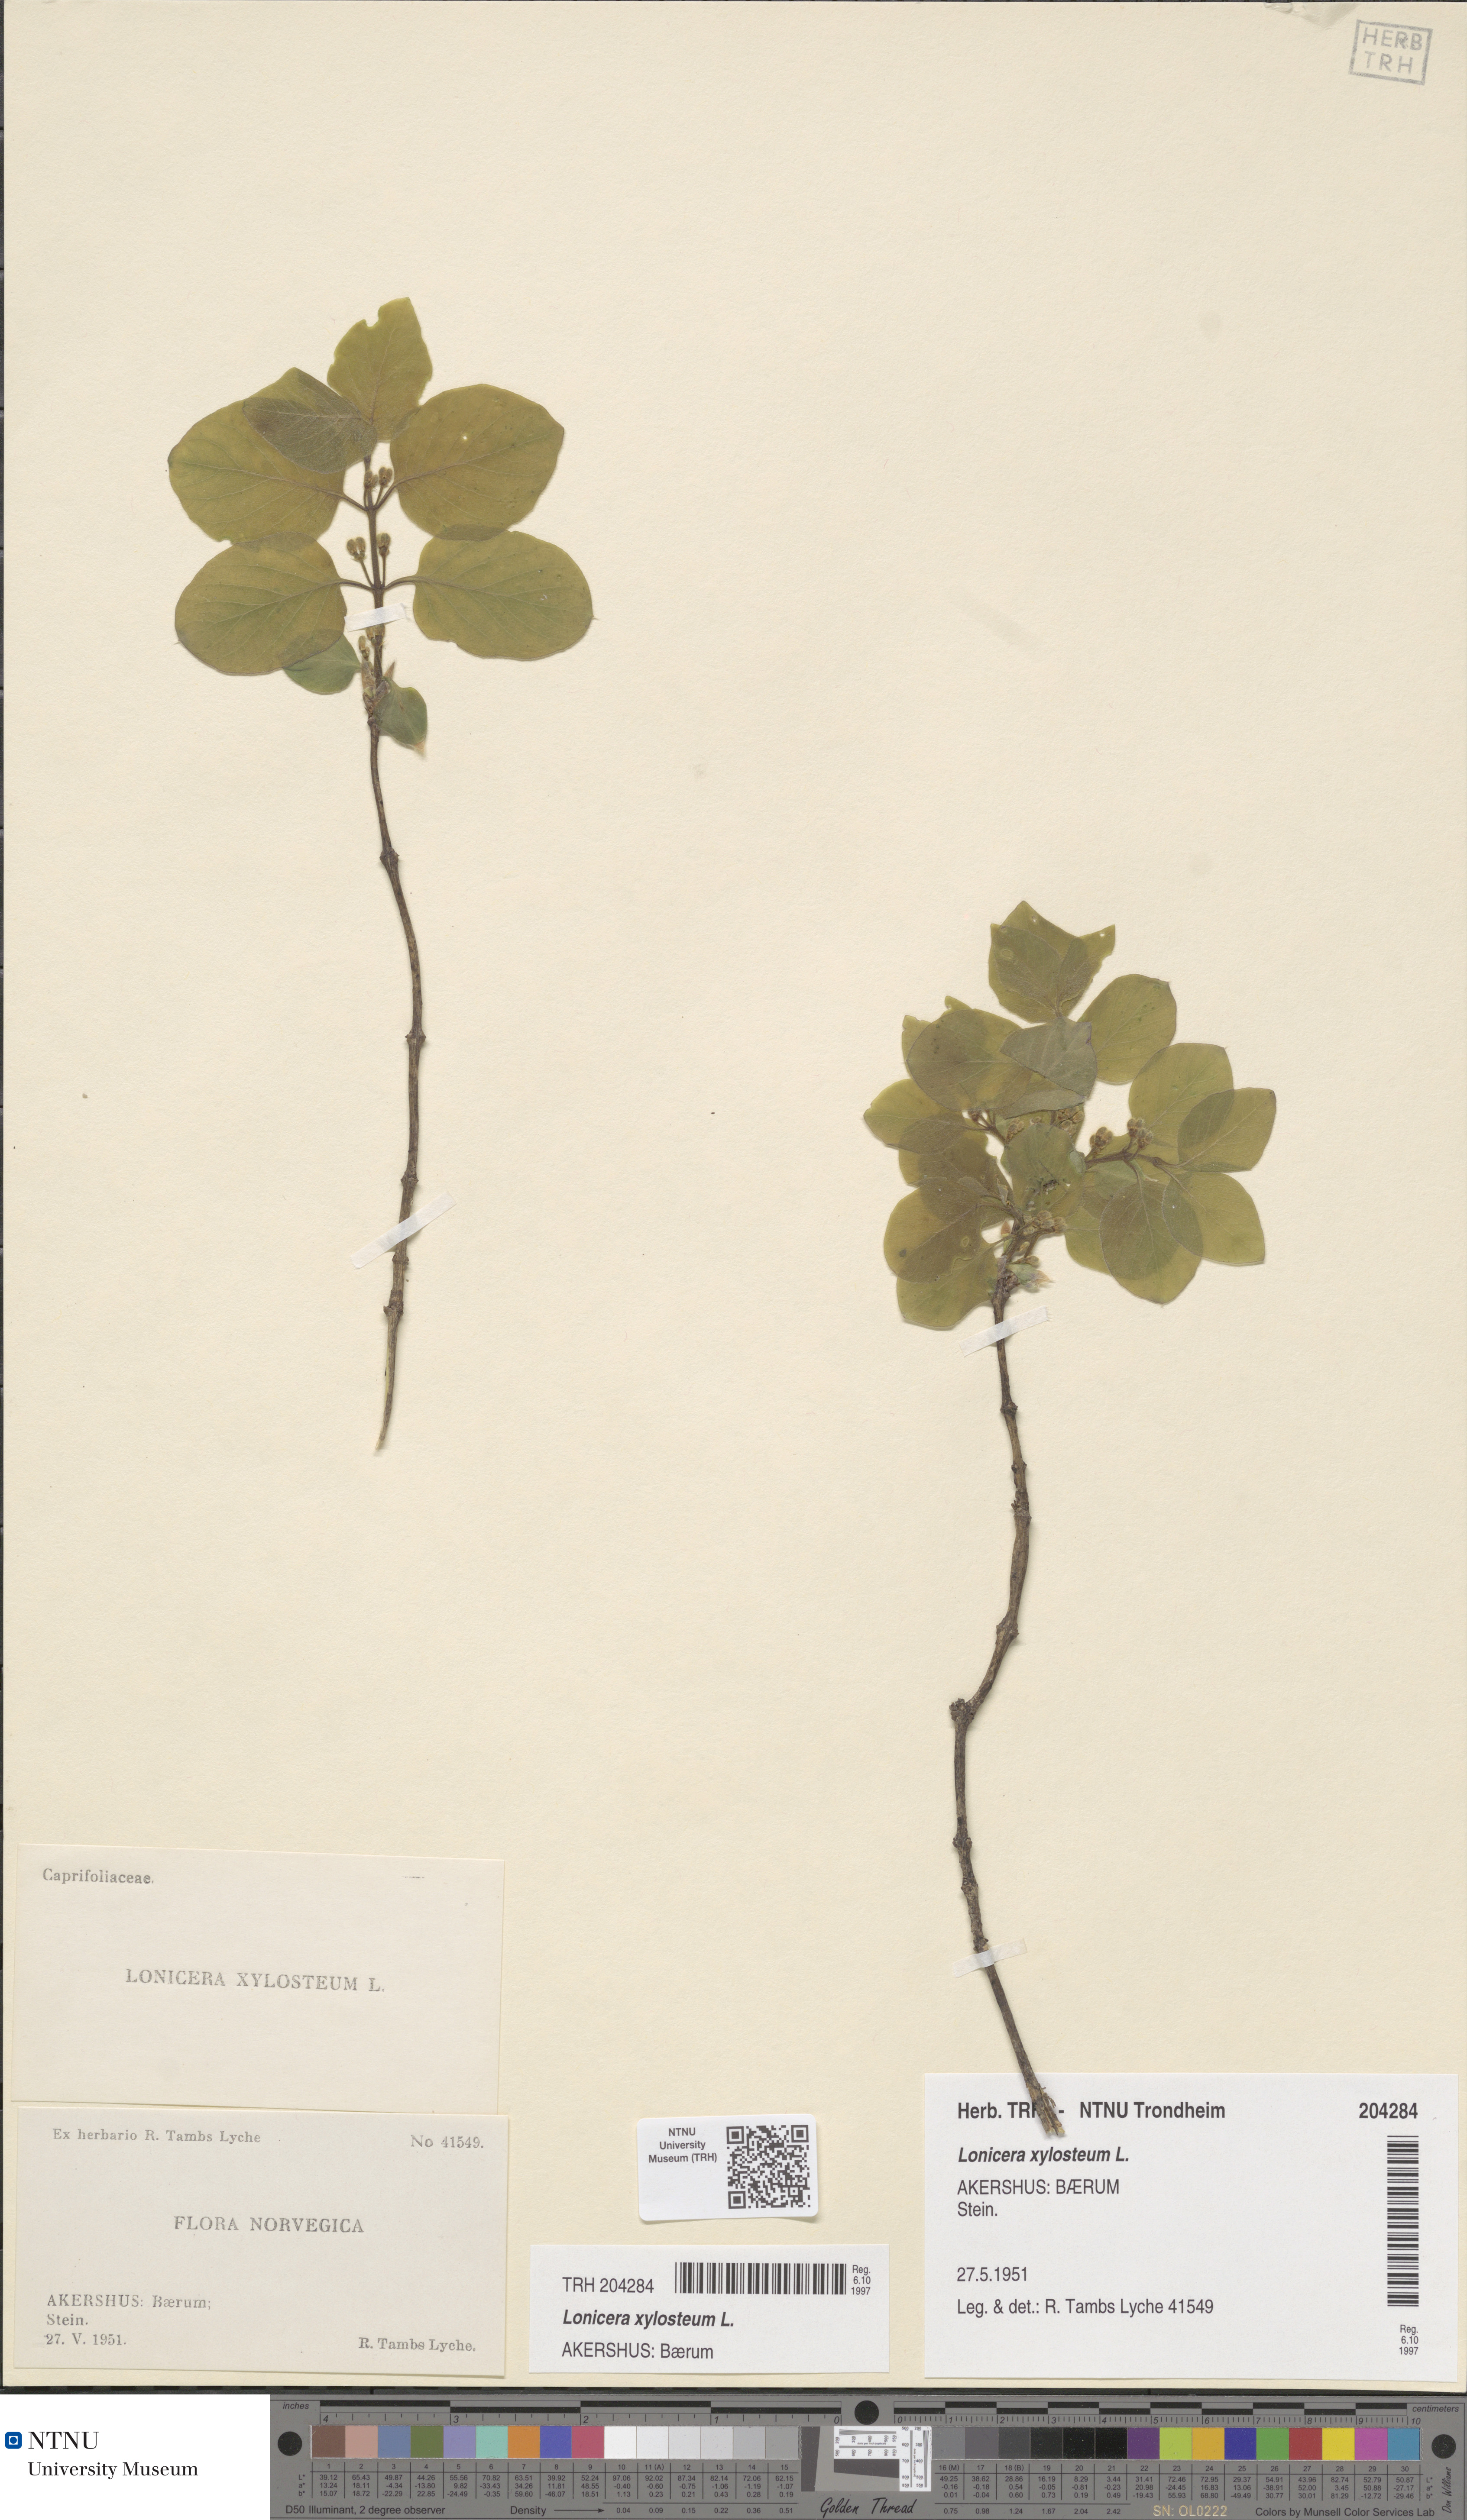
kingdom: Plantae
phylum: Tracheophyta
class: Magnoliopsida
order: Dipsacales
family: Caprifoliaceae
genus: Lonicera
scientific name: Lonicera xylosteum
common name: Fly honeysuckle
